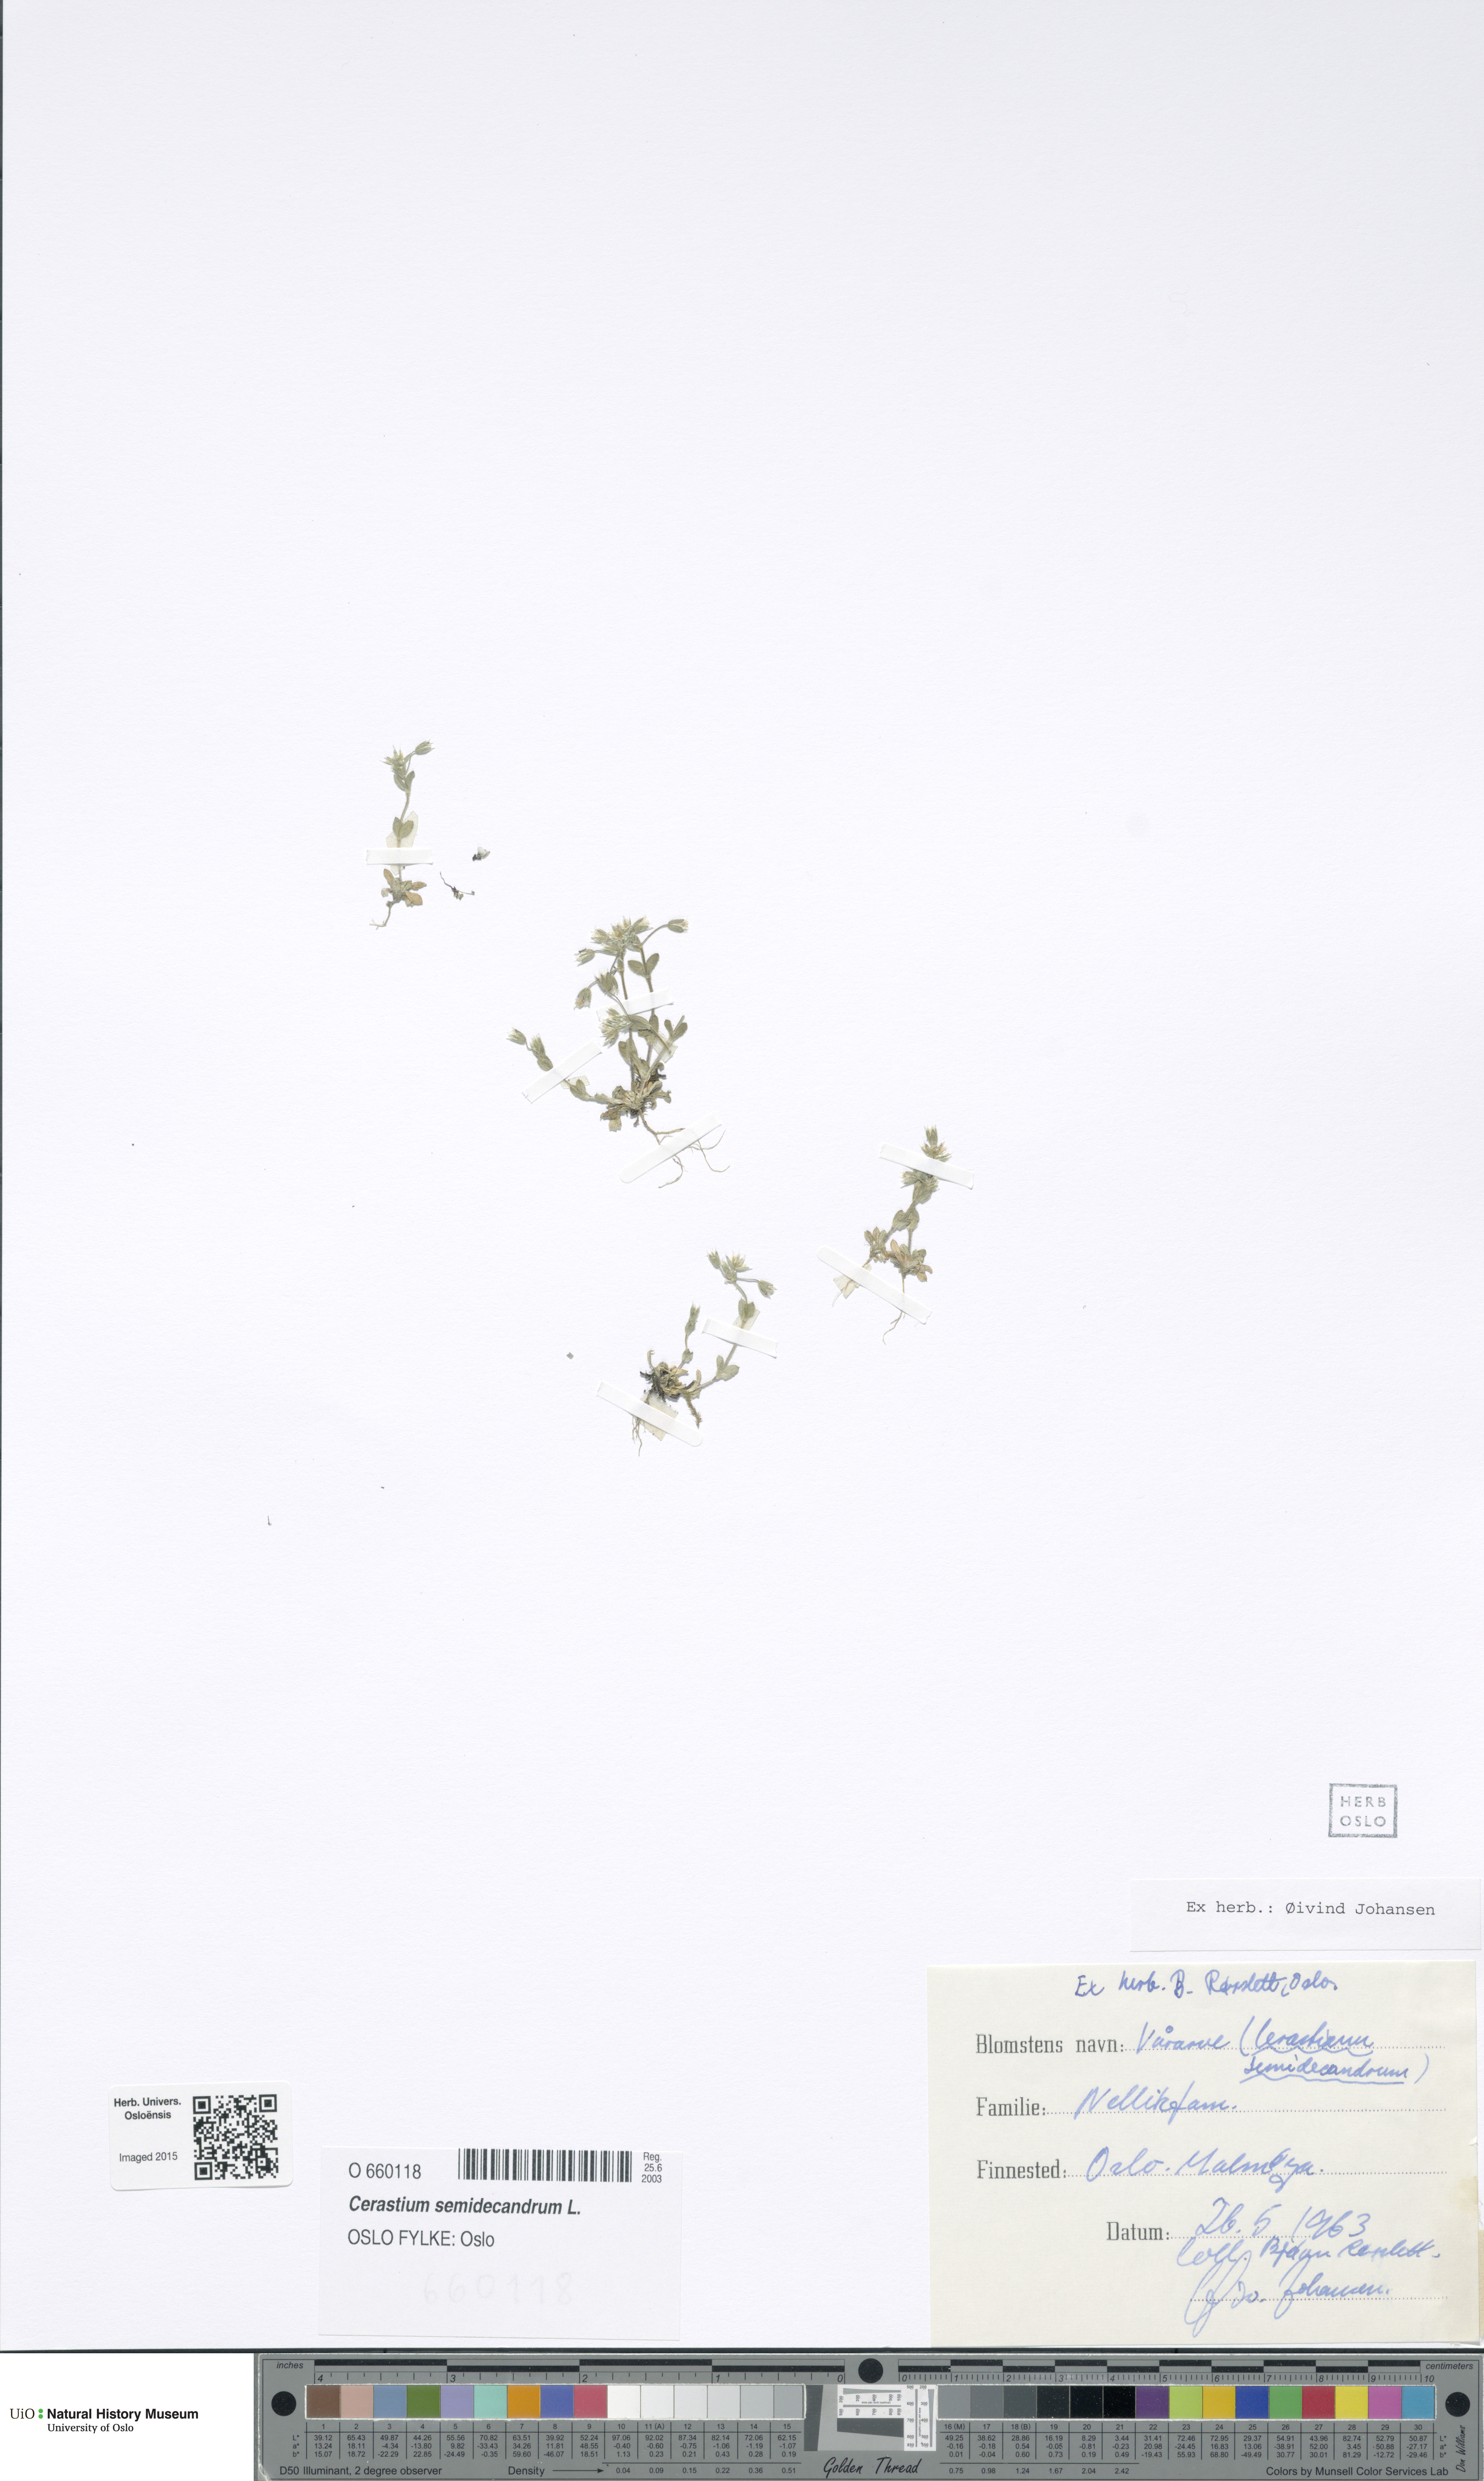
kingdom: Plantae
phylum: Tracheophyta
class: Magnoliopsida
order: Caryophyllales
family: Caryophyllaceae
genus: Cerastium
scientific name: Cerastium semidecandrum
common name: Little mouse-ear
